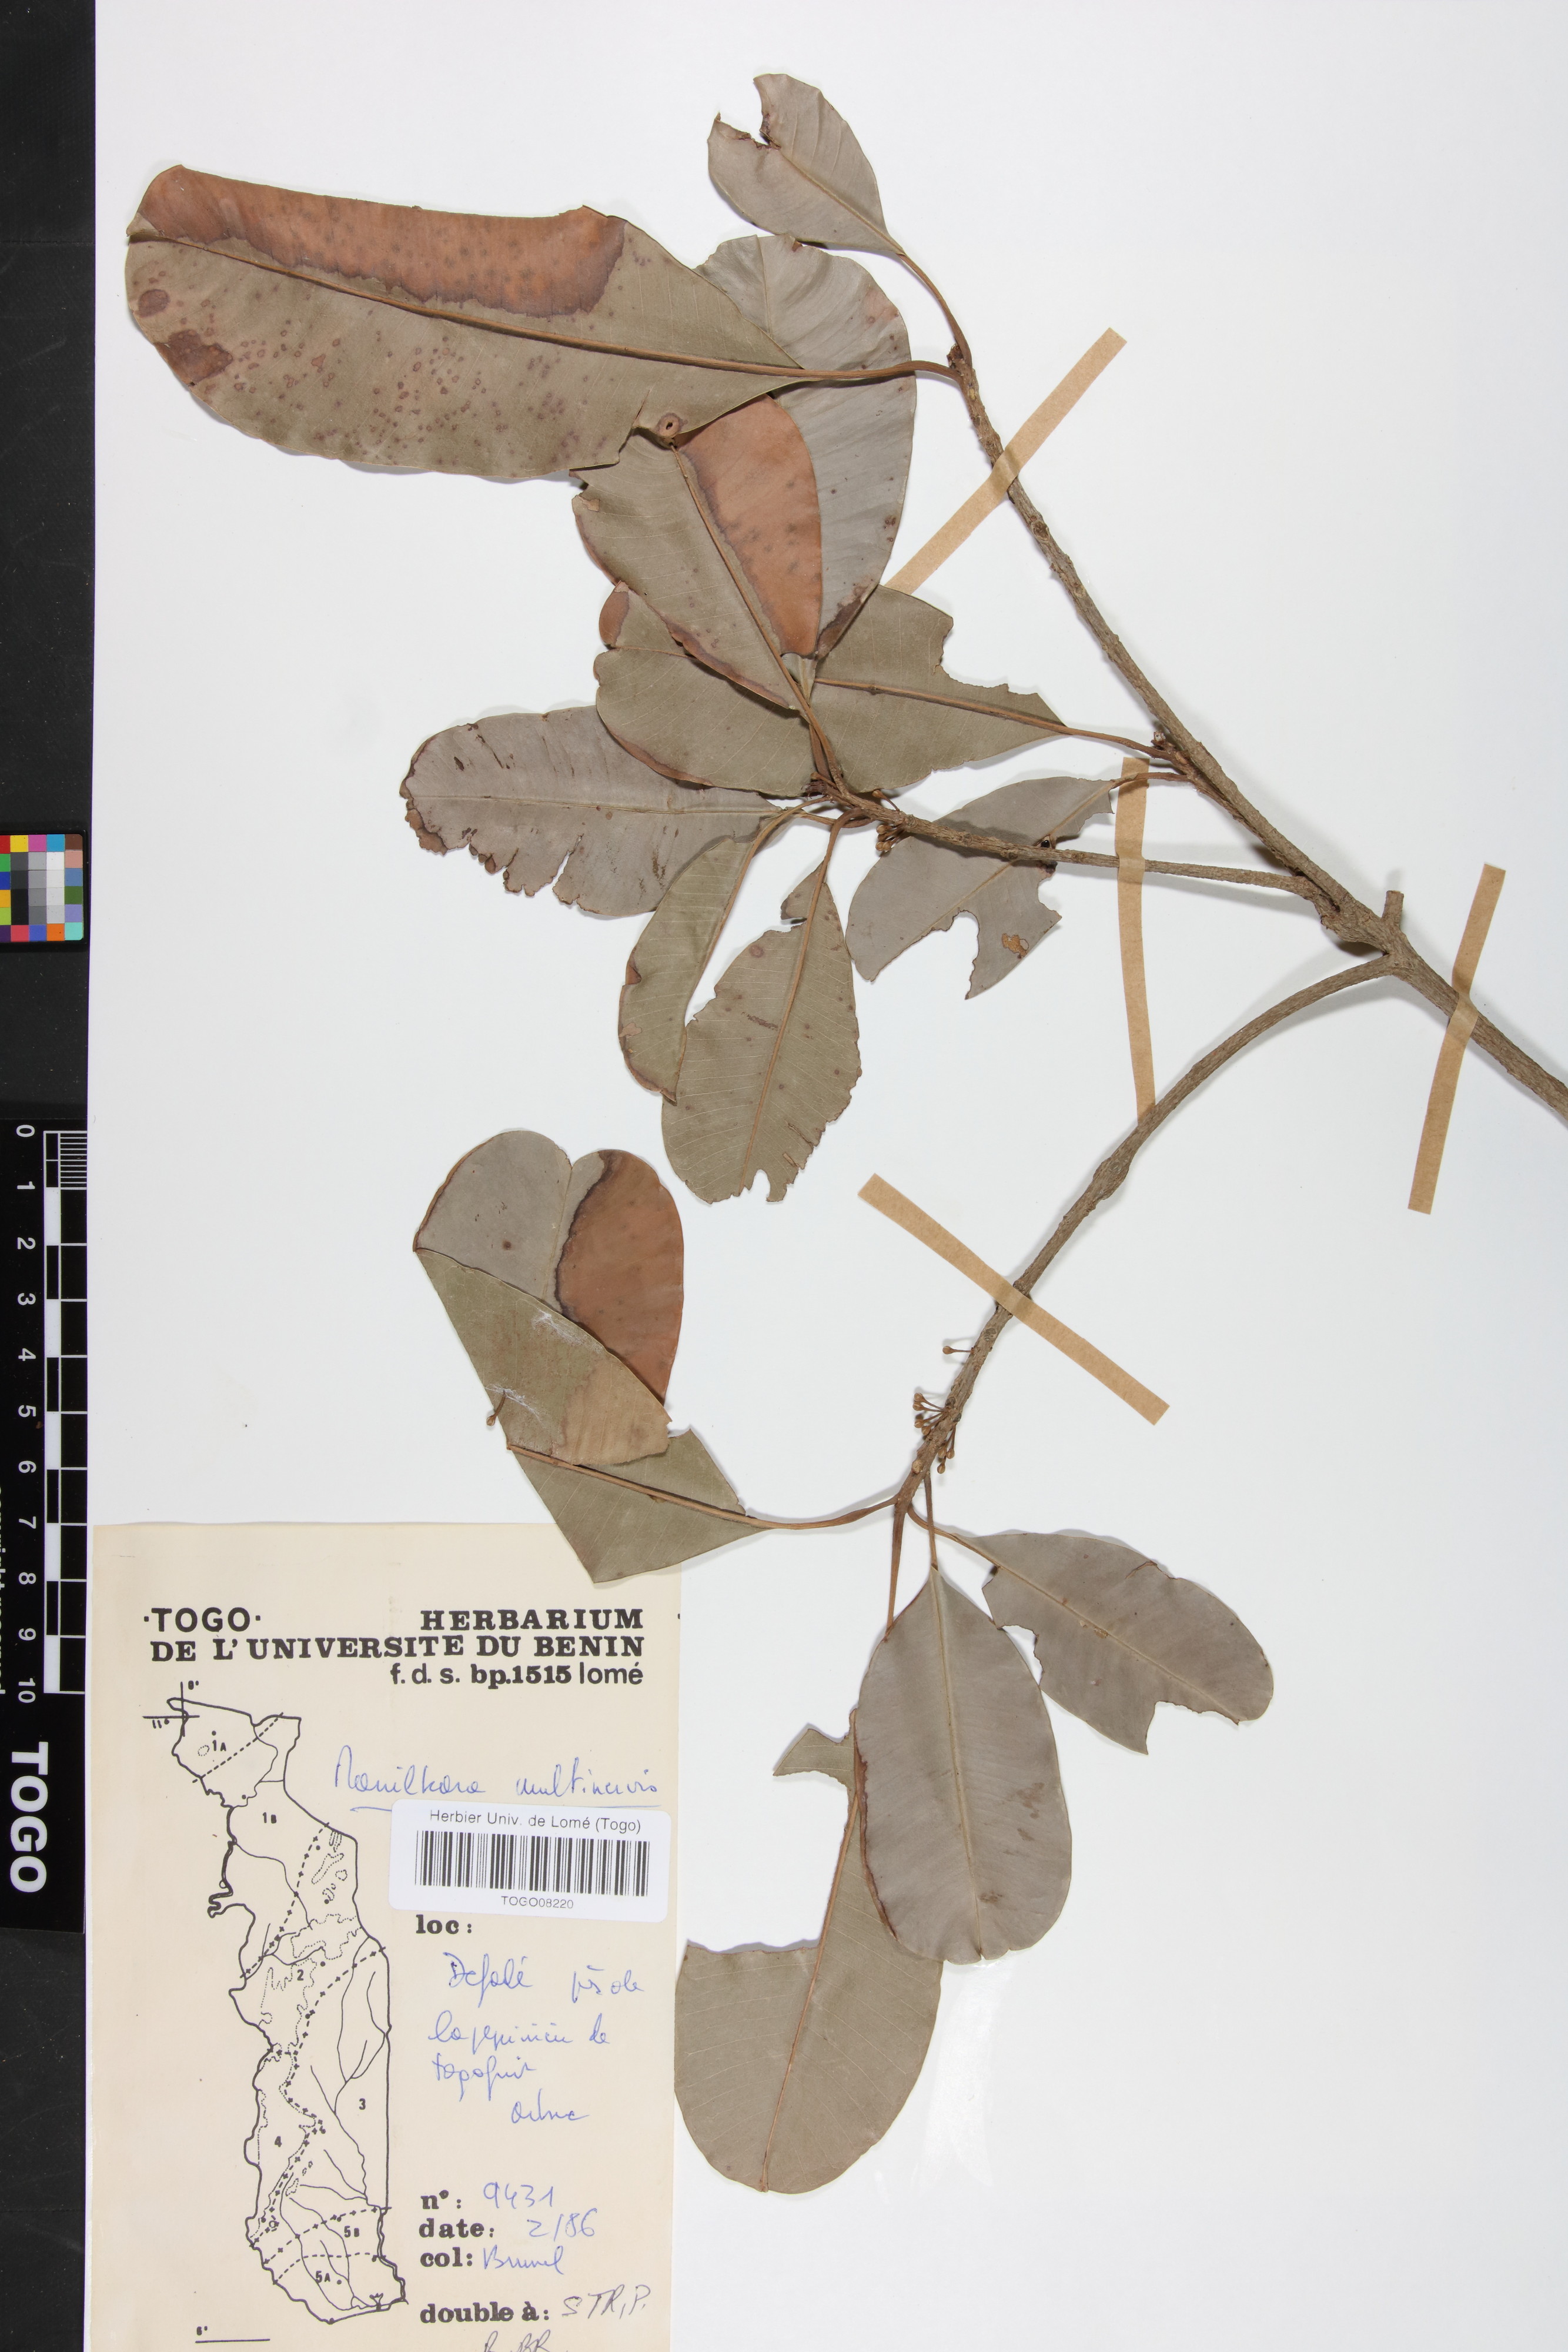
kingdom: Plantae
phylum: Tracheophyta
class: Magnoliopsida
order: Ericales
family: Sapotaceae
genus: Manilkara
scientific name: Manilkara obovata
